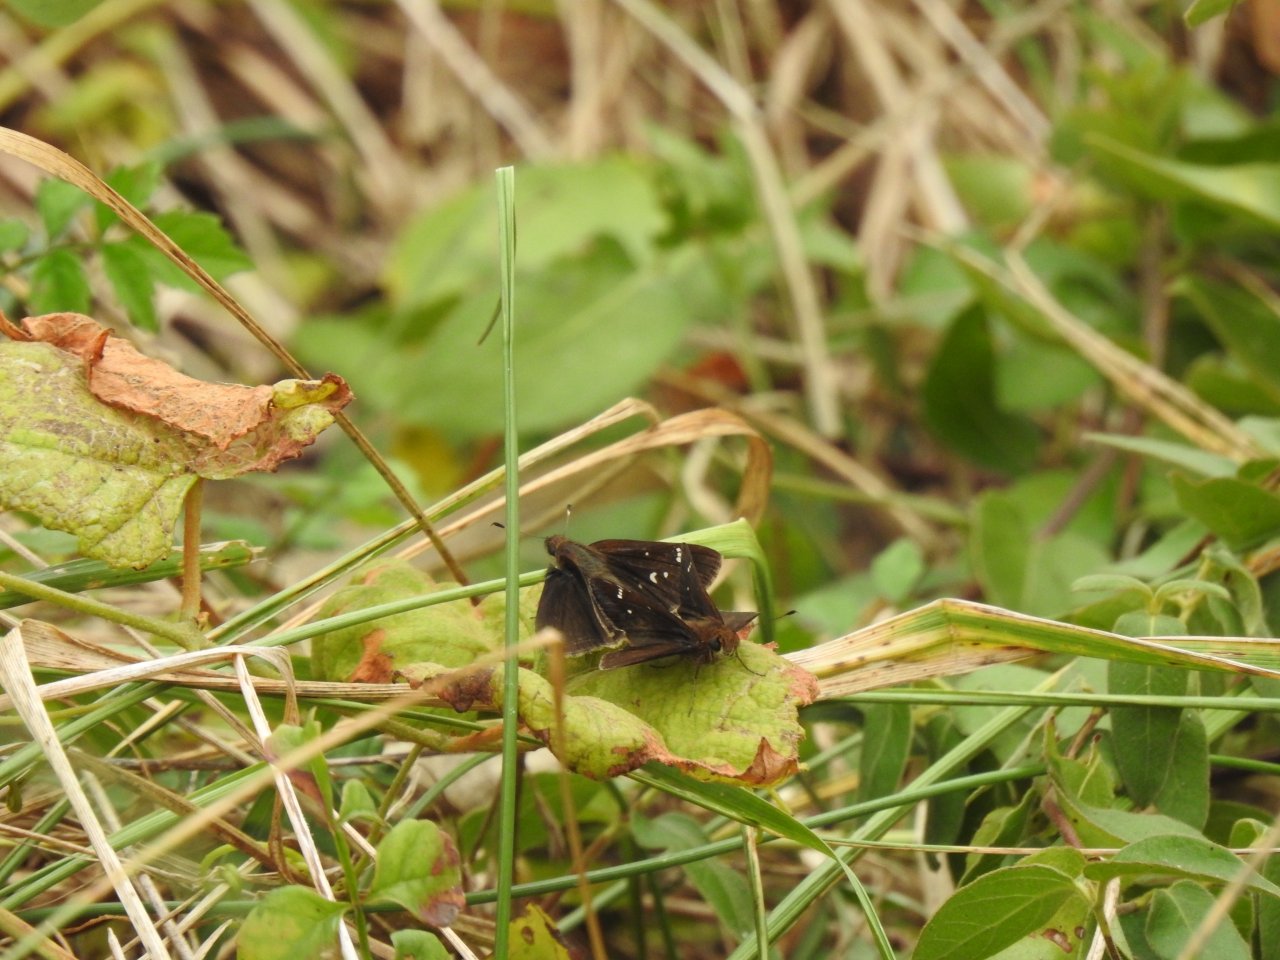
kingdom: Animalia
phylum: Arthropoda
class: Insecta
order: Lepidoptera
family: Hesperiidae
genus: Lerema
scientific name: Lerema accius
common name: Clouded Skipper
